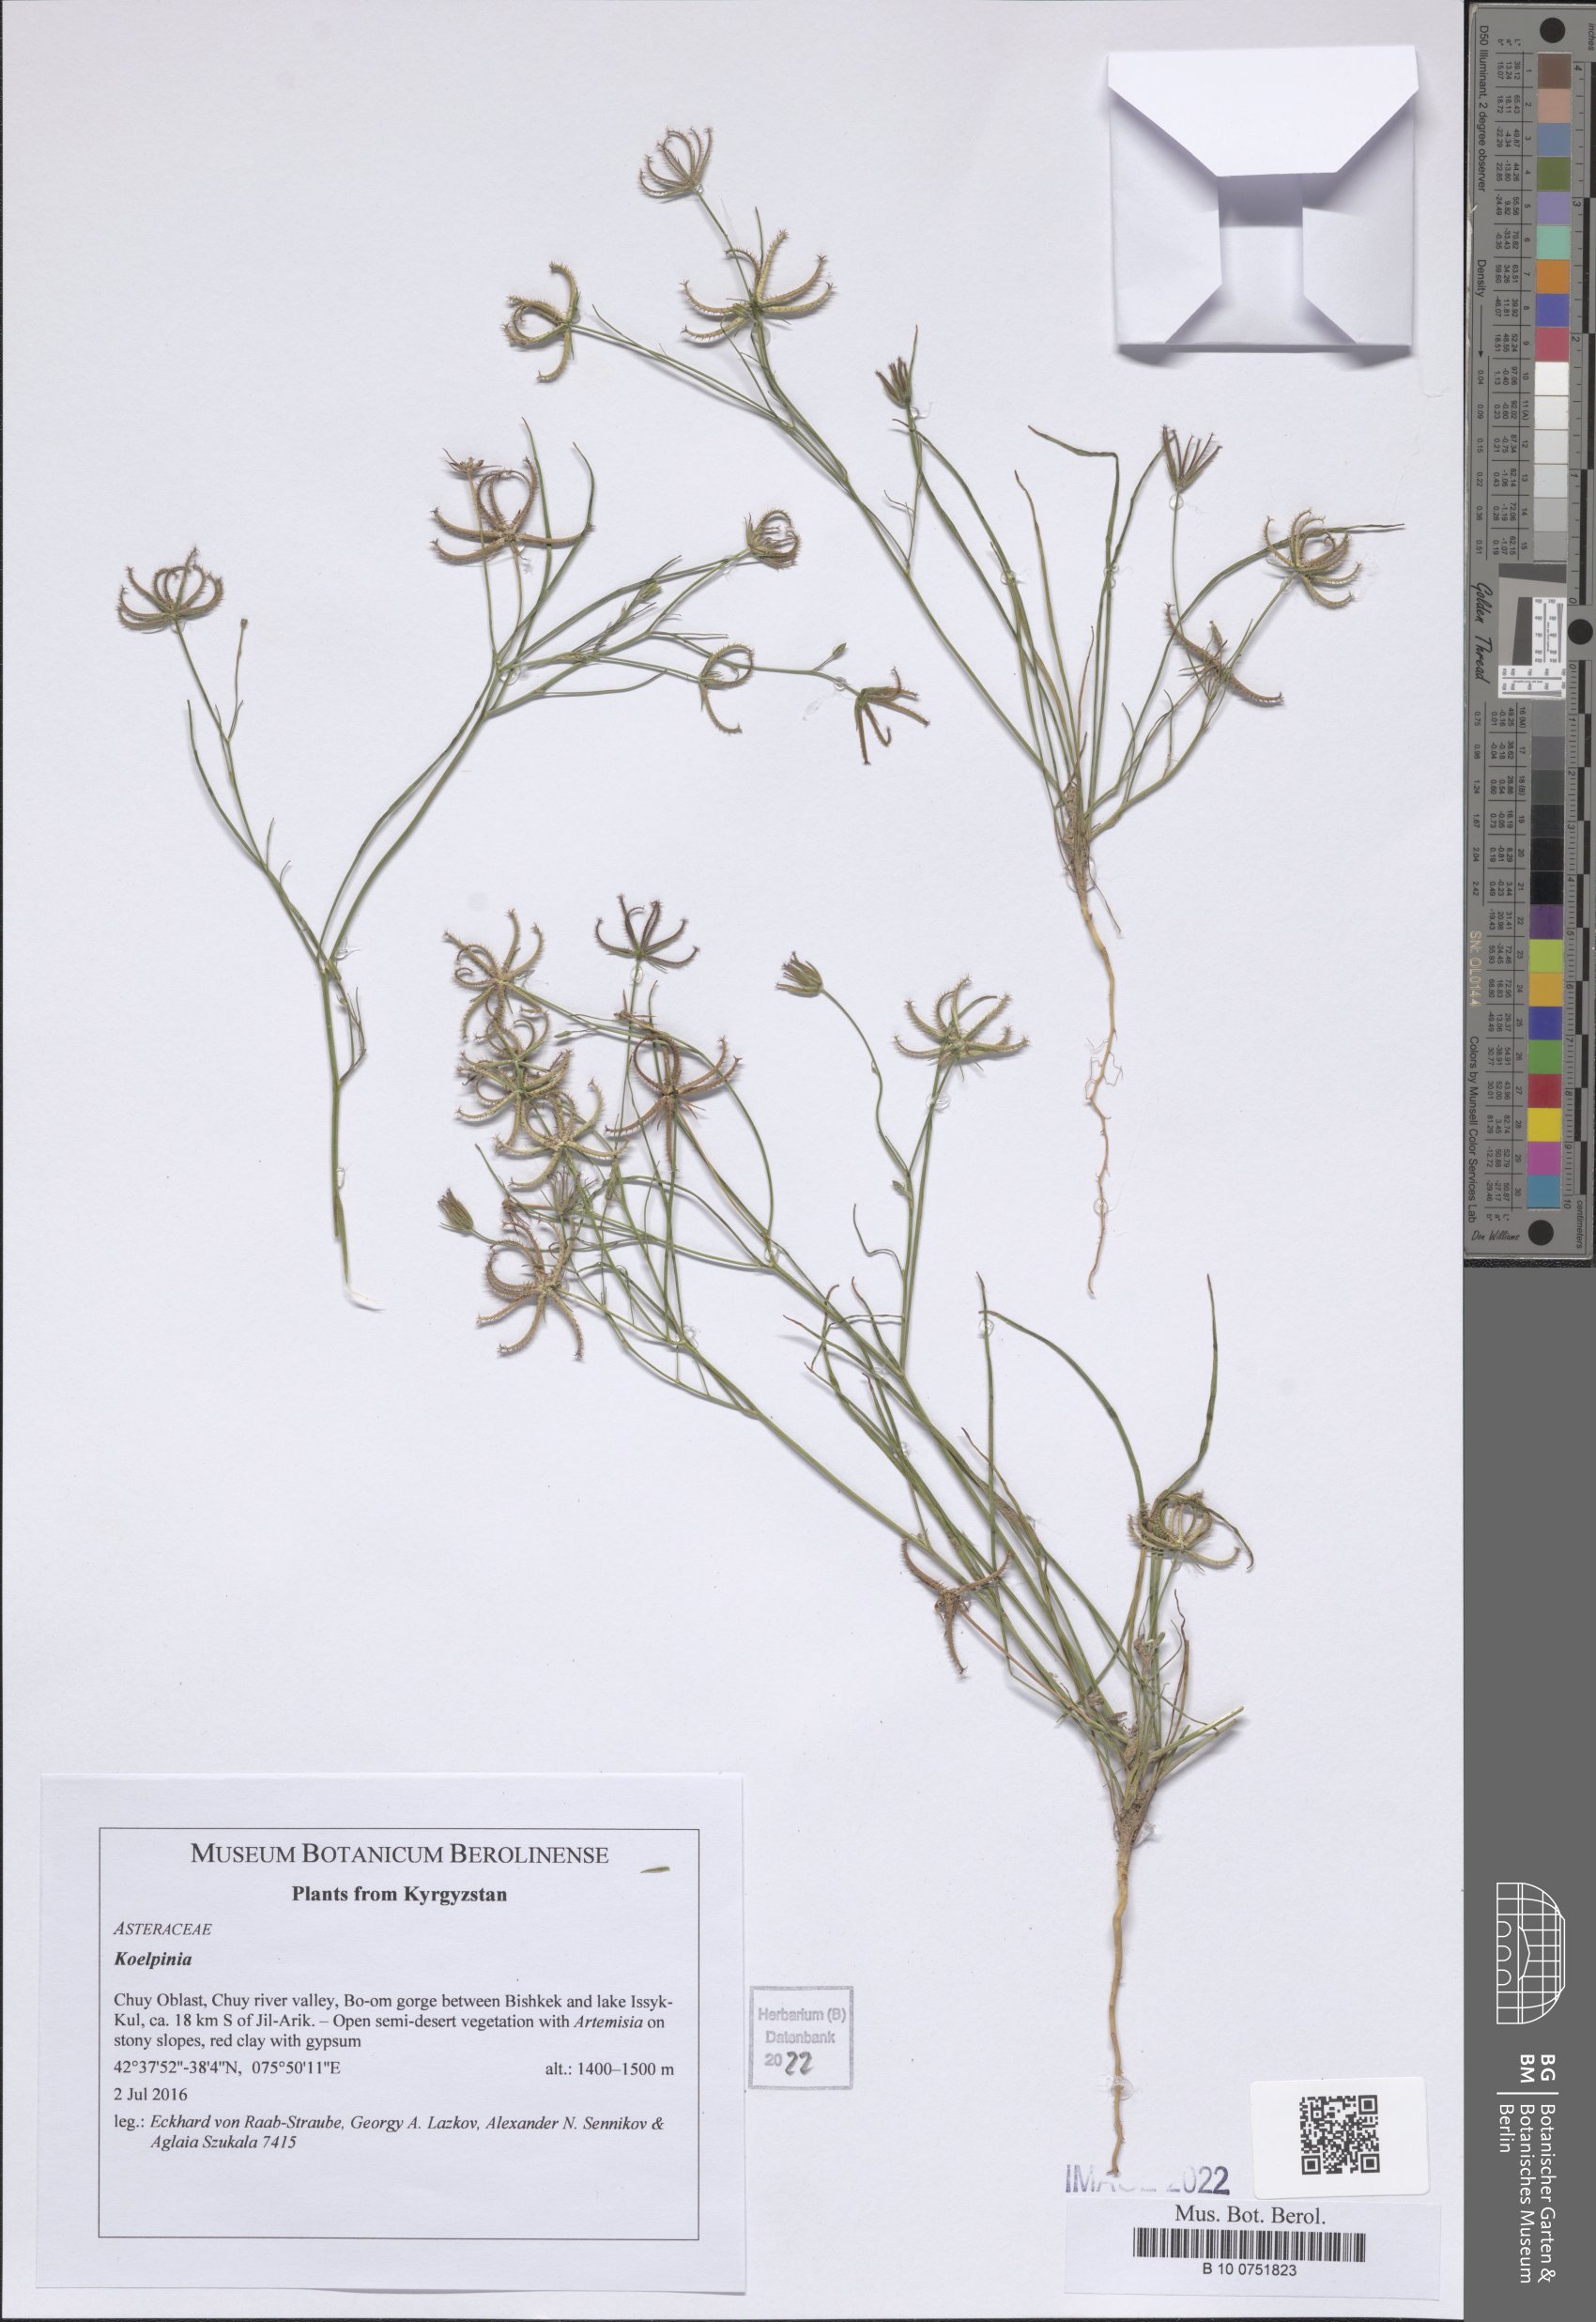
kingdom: Plantae
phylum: Tracheophyta
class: Magnoliopsida
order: Asterales
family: Asteraceae
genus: Koelpinia
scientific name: Koelpinia
